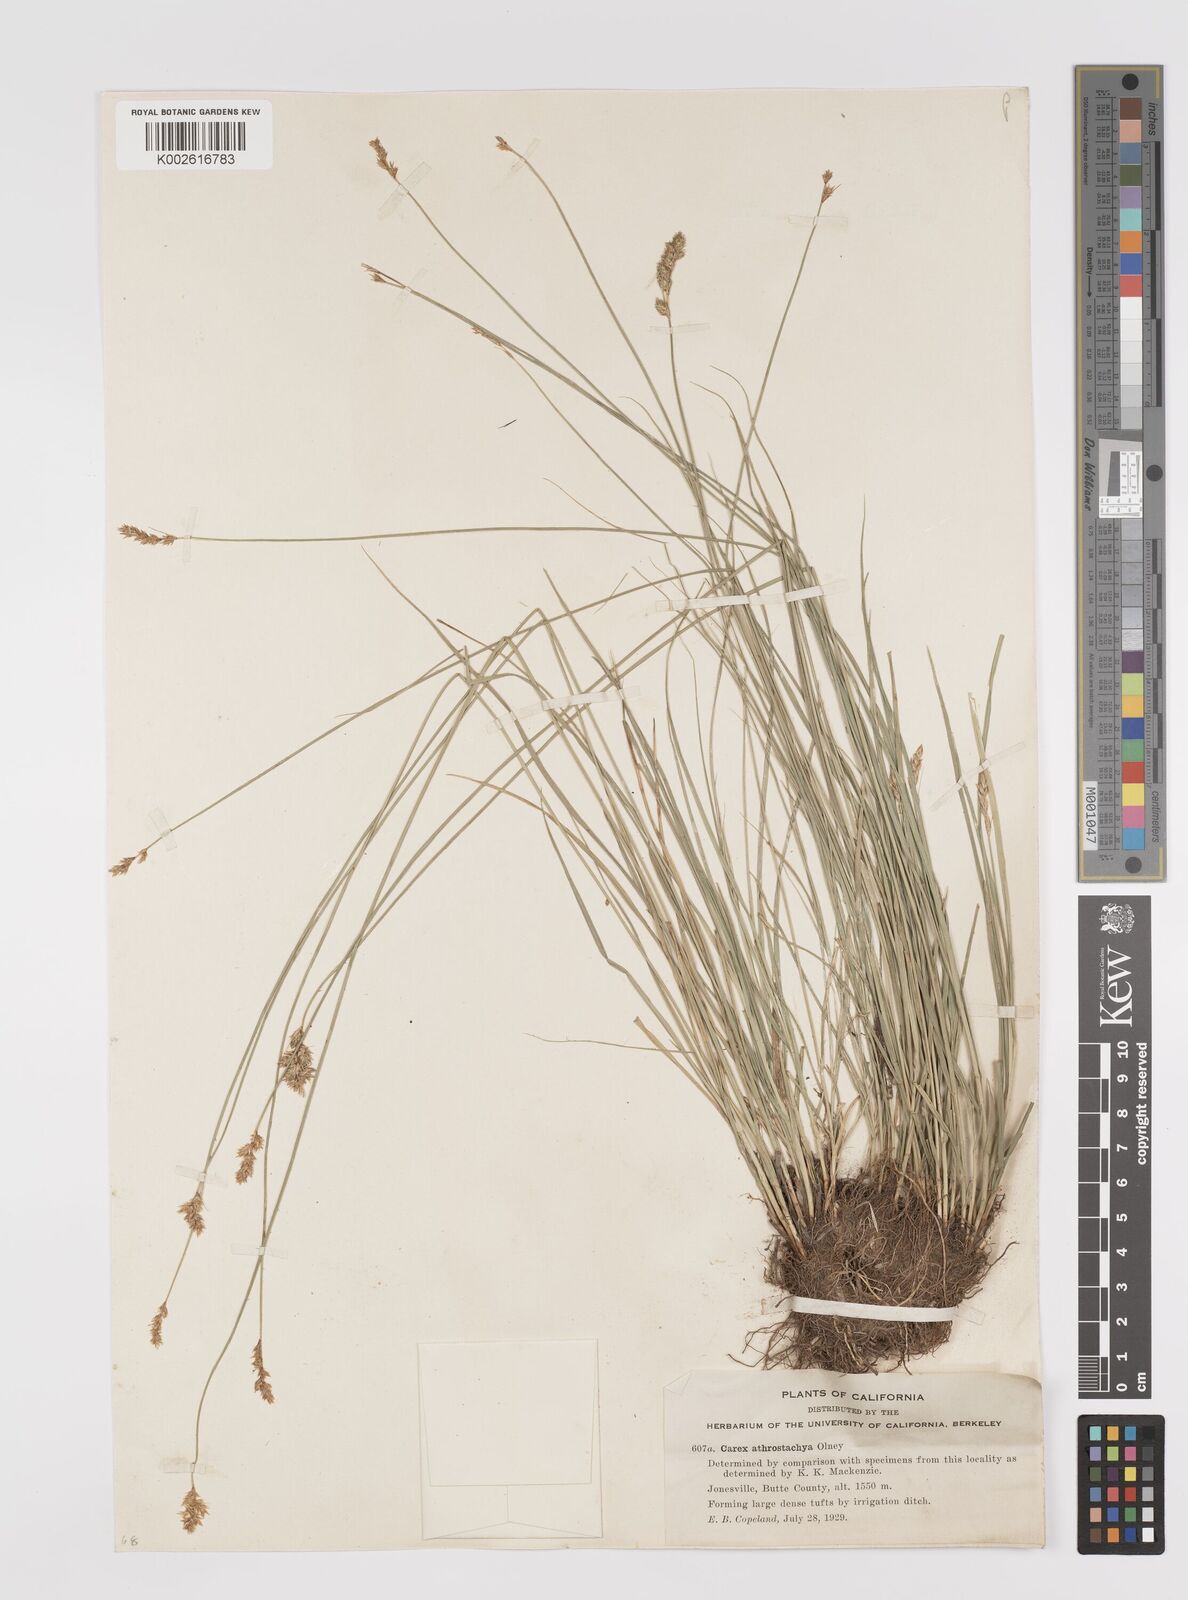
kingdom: Plantae
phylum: Tracheophyta
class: Liliopsida
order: Poales
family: Cyperaceae
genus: Carex
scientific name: Carex athrostachya
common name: Slenderbeak sedge
